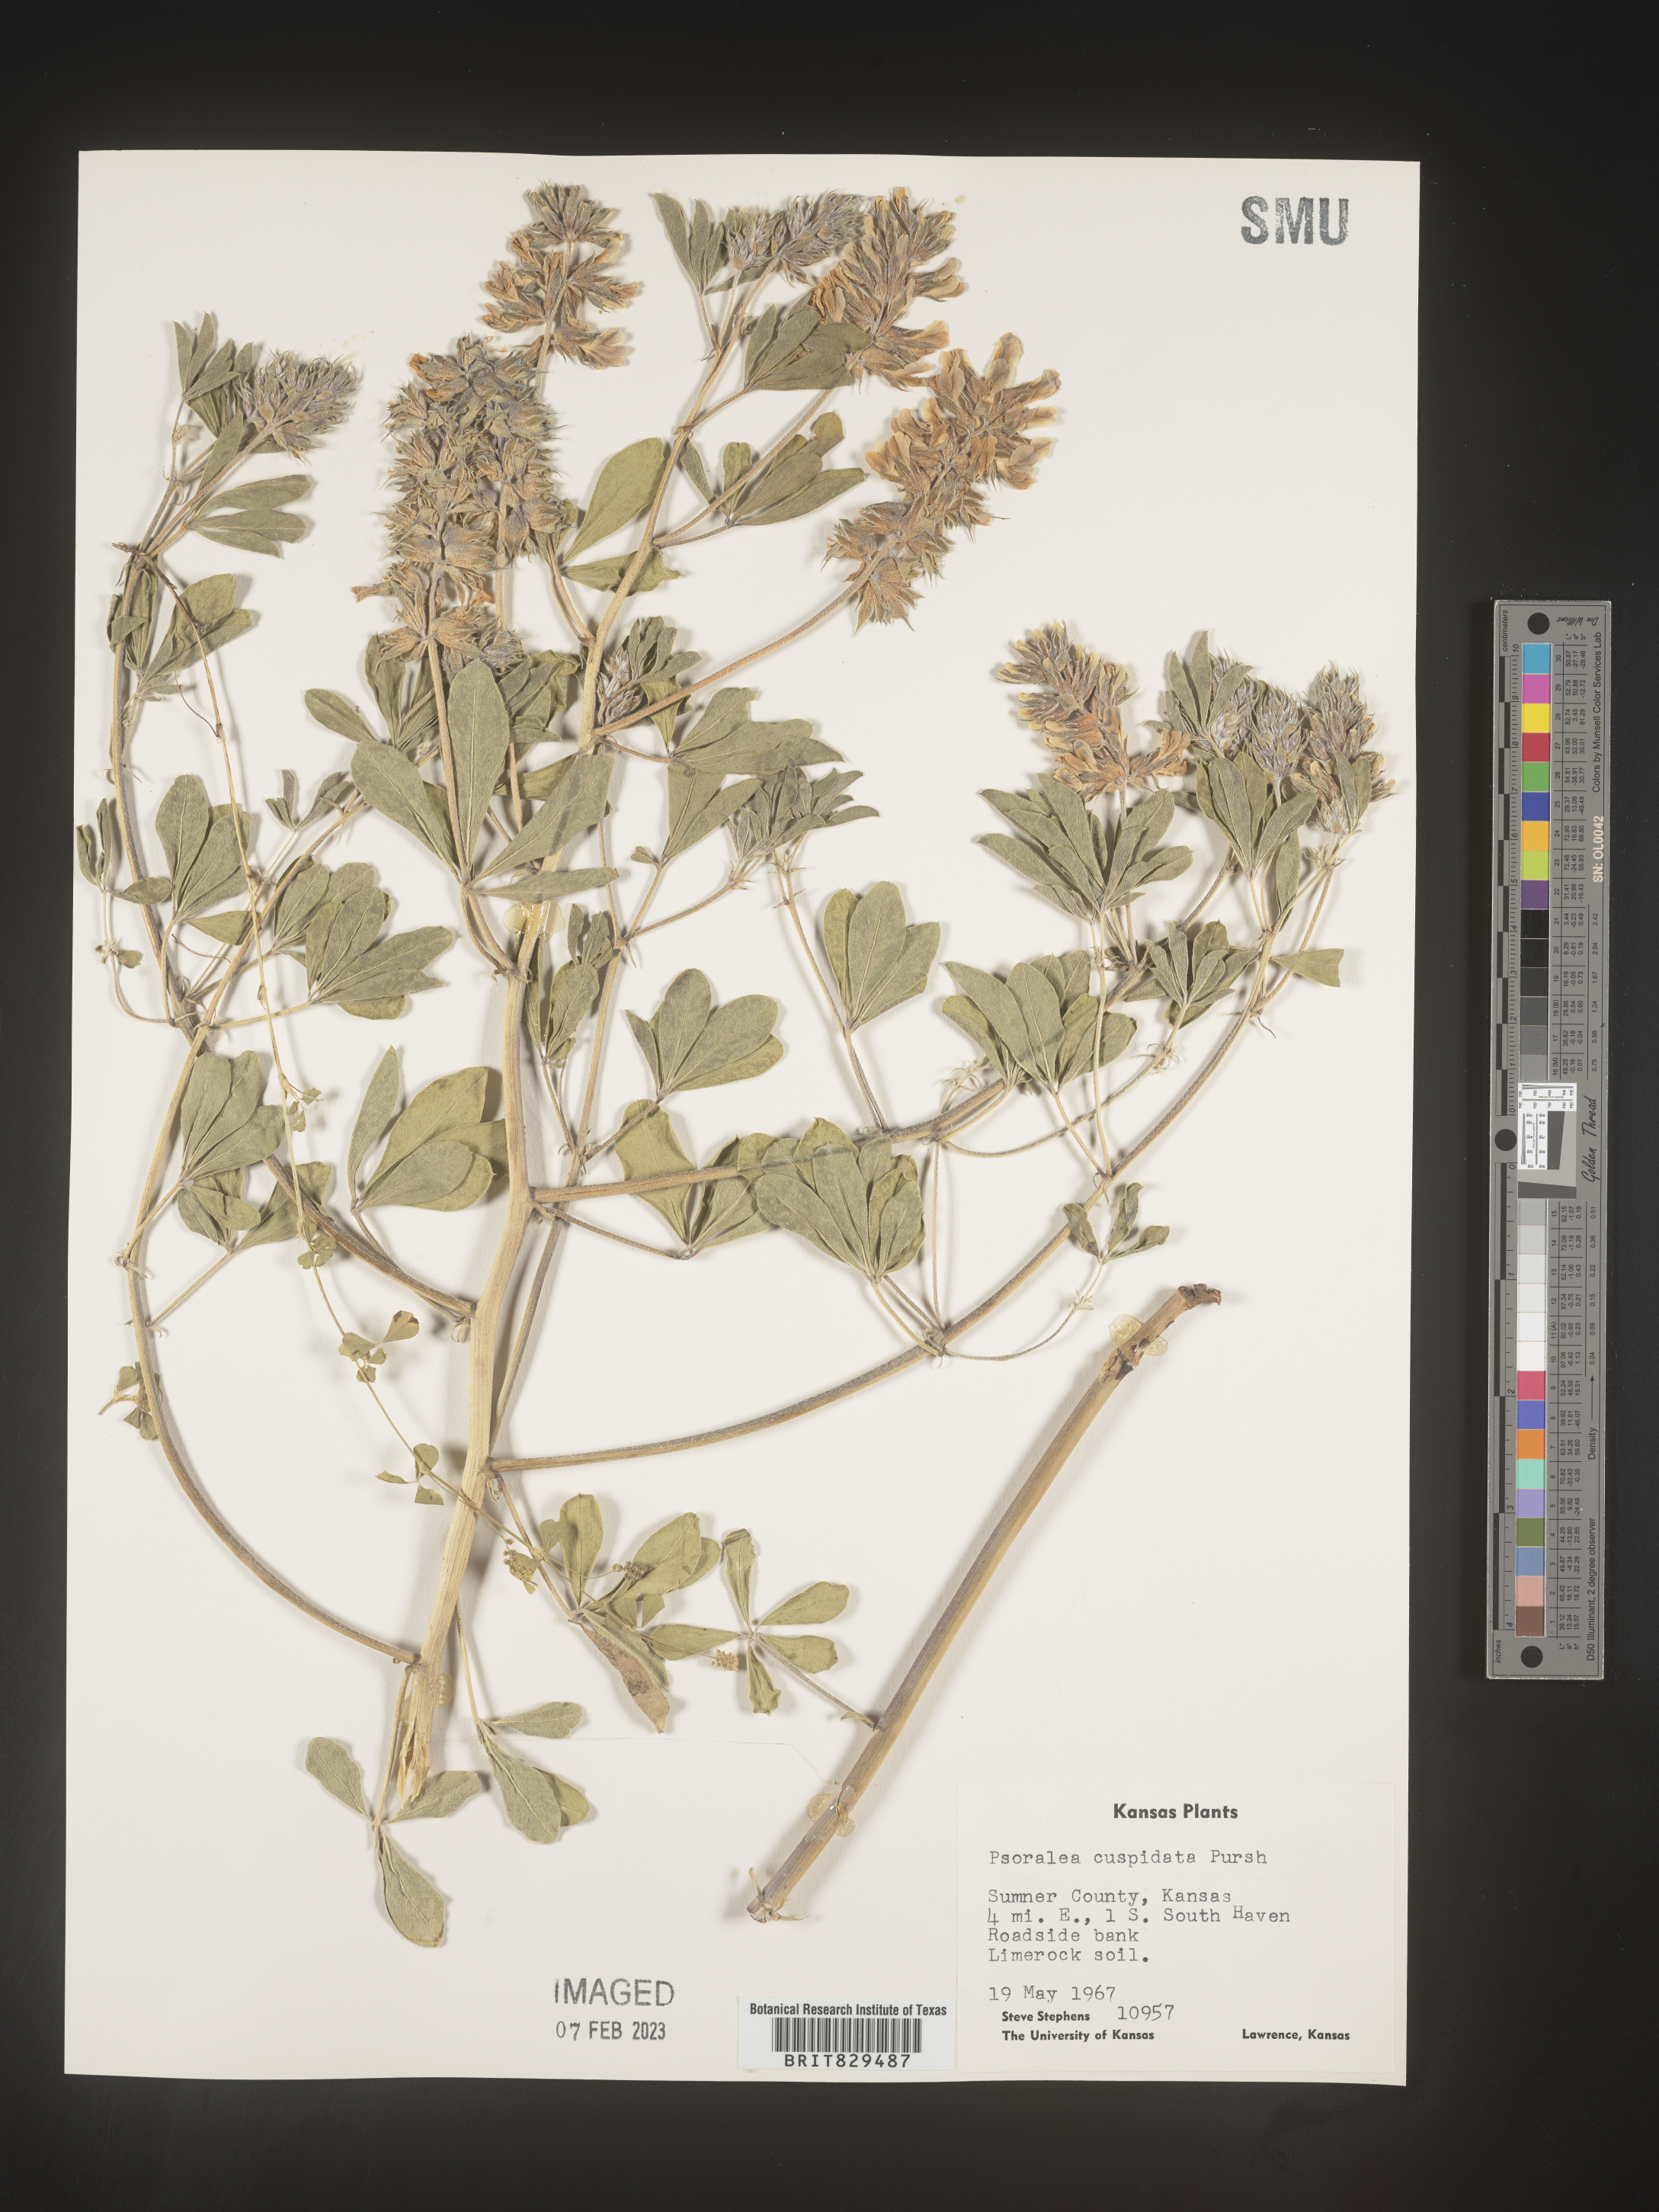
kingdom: Plantae
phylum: Tracheophyta
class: Magnoliopsida
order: Fabales
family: Fabaceae
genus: Pediomelum
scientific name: Pediomelum cuspidatum
